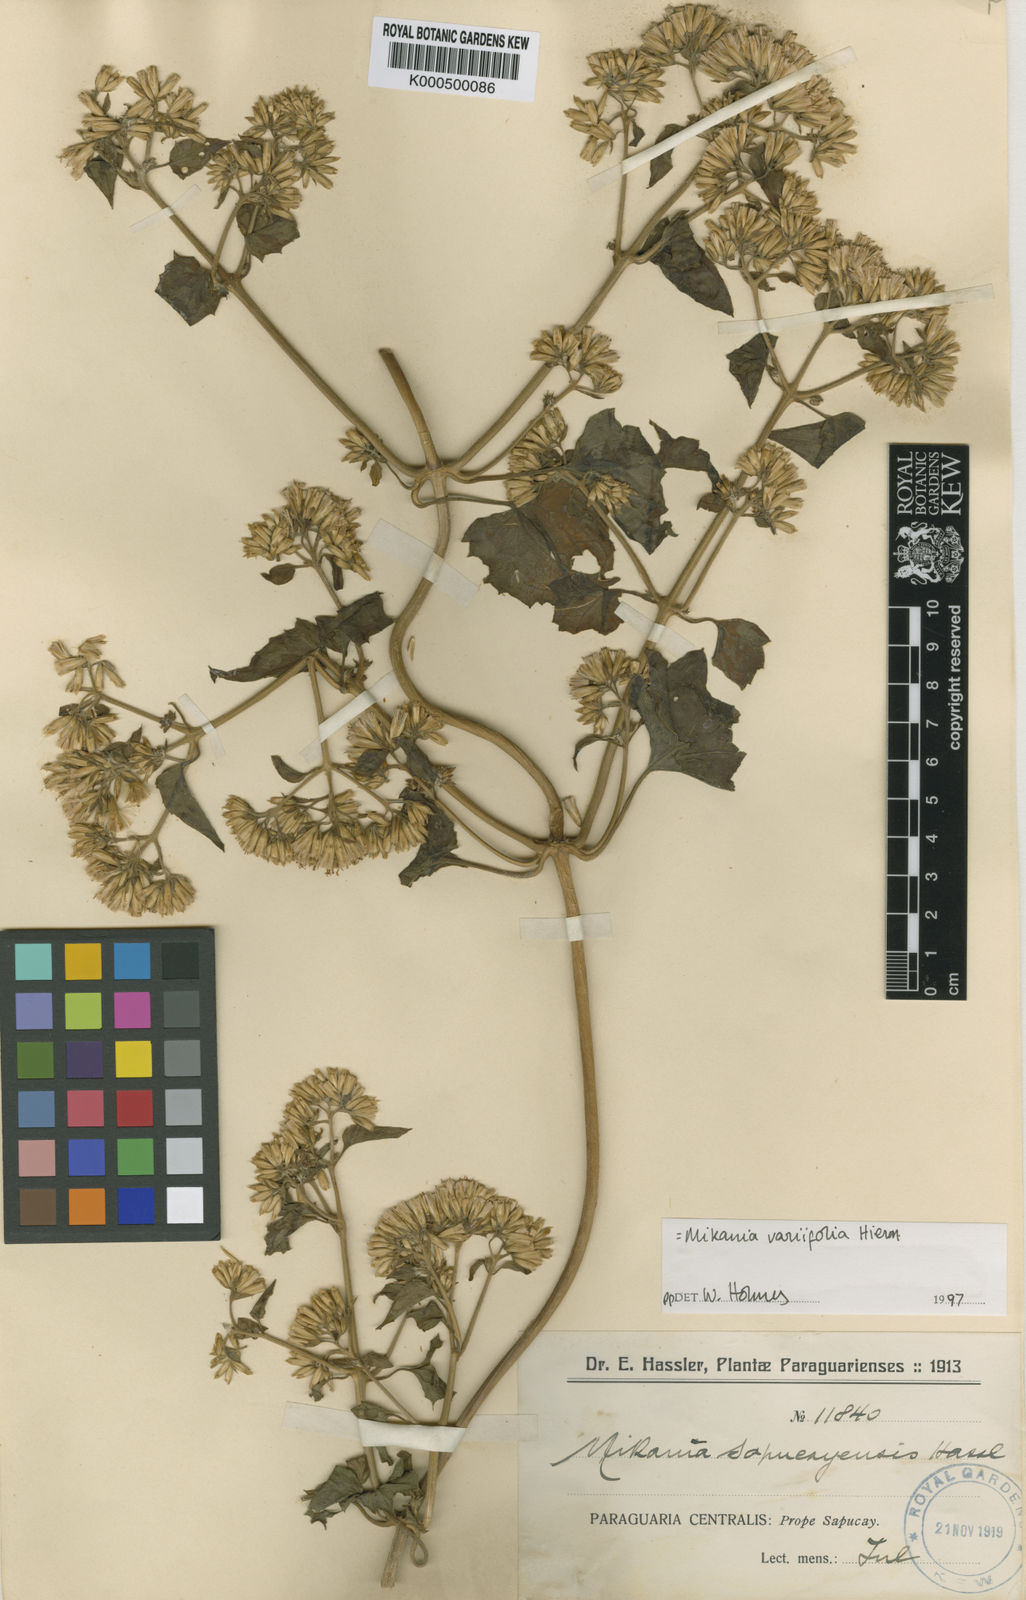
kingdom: Plantae
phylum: Tracheophyta
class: Magnoliopsida
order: Asterales
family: Asteraceae
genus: Mikania
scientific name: Mikania variifolia
